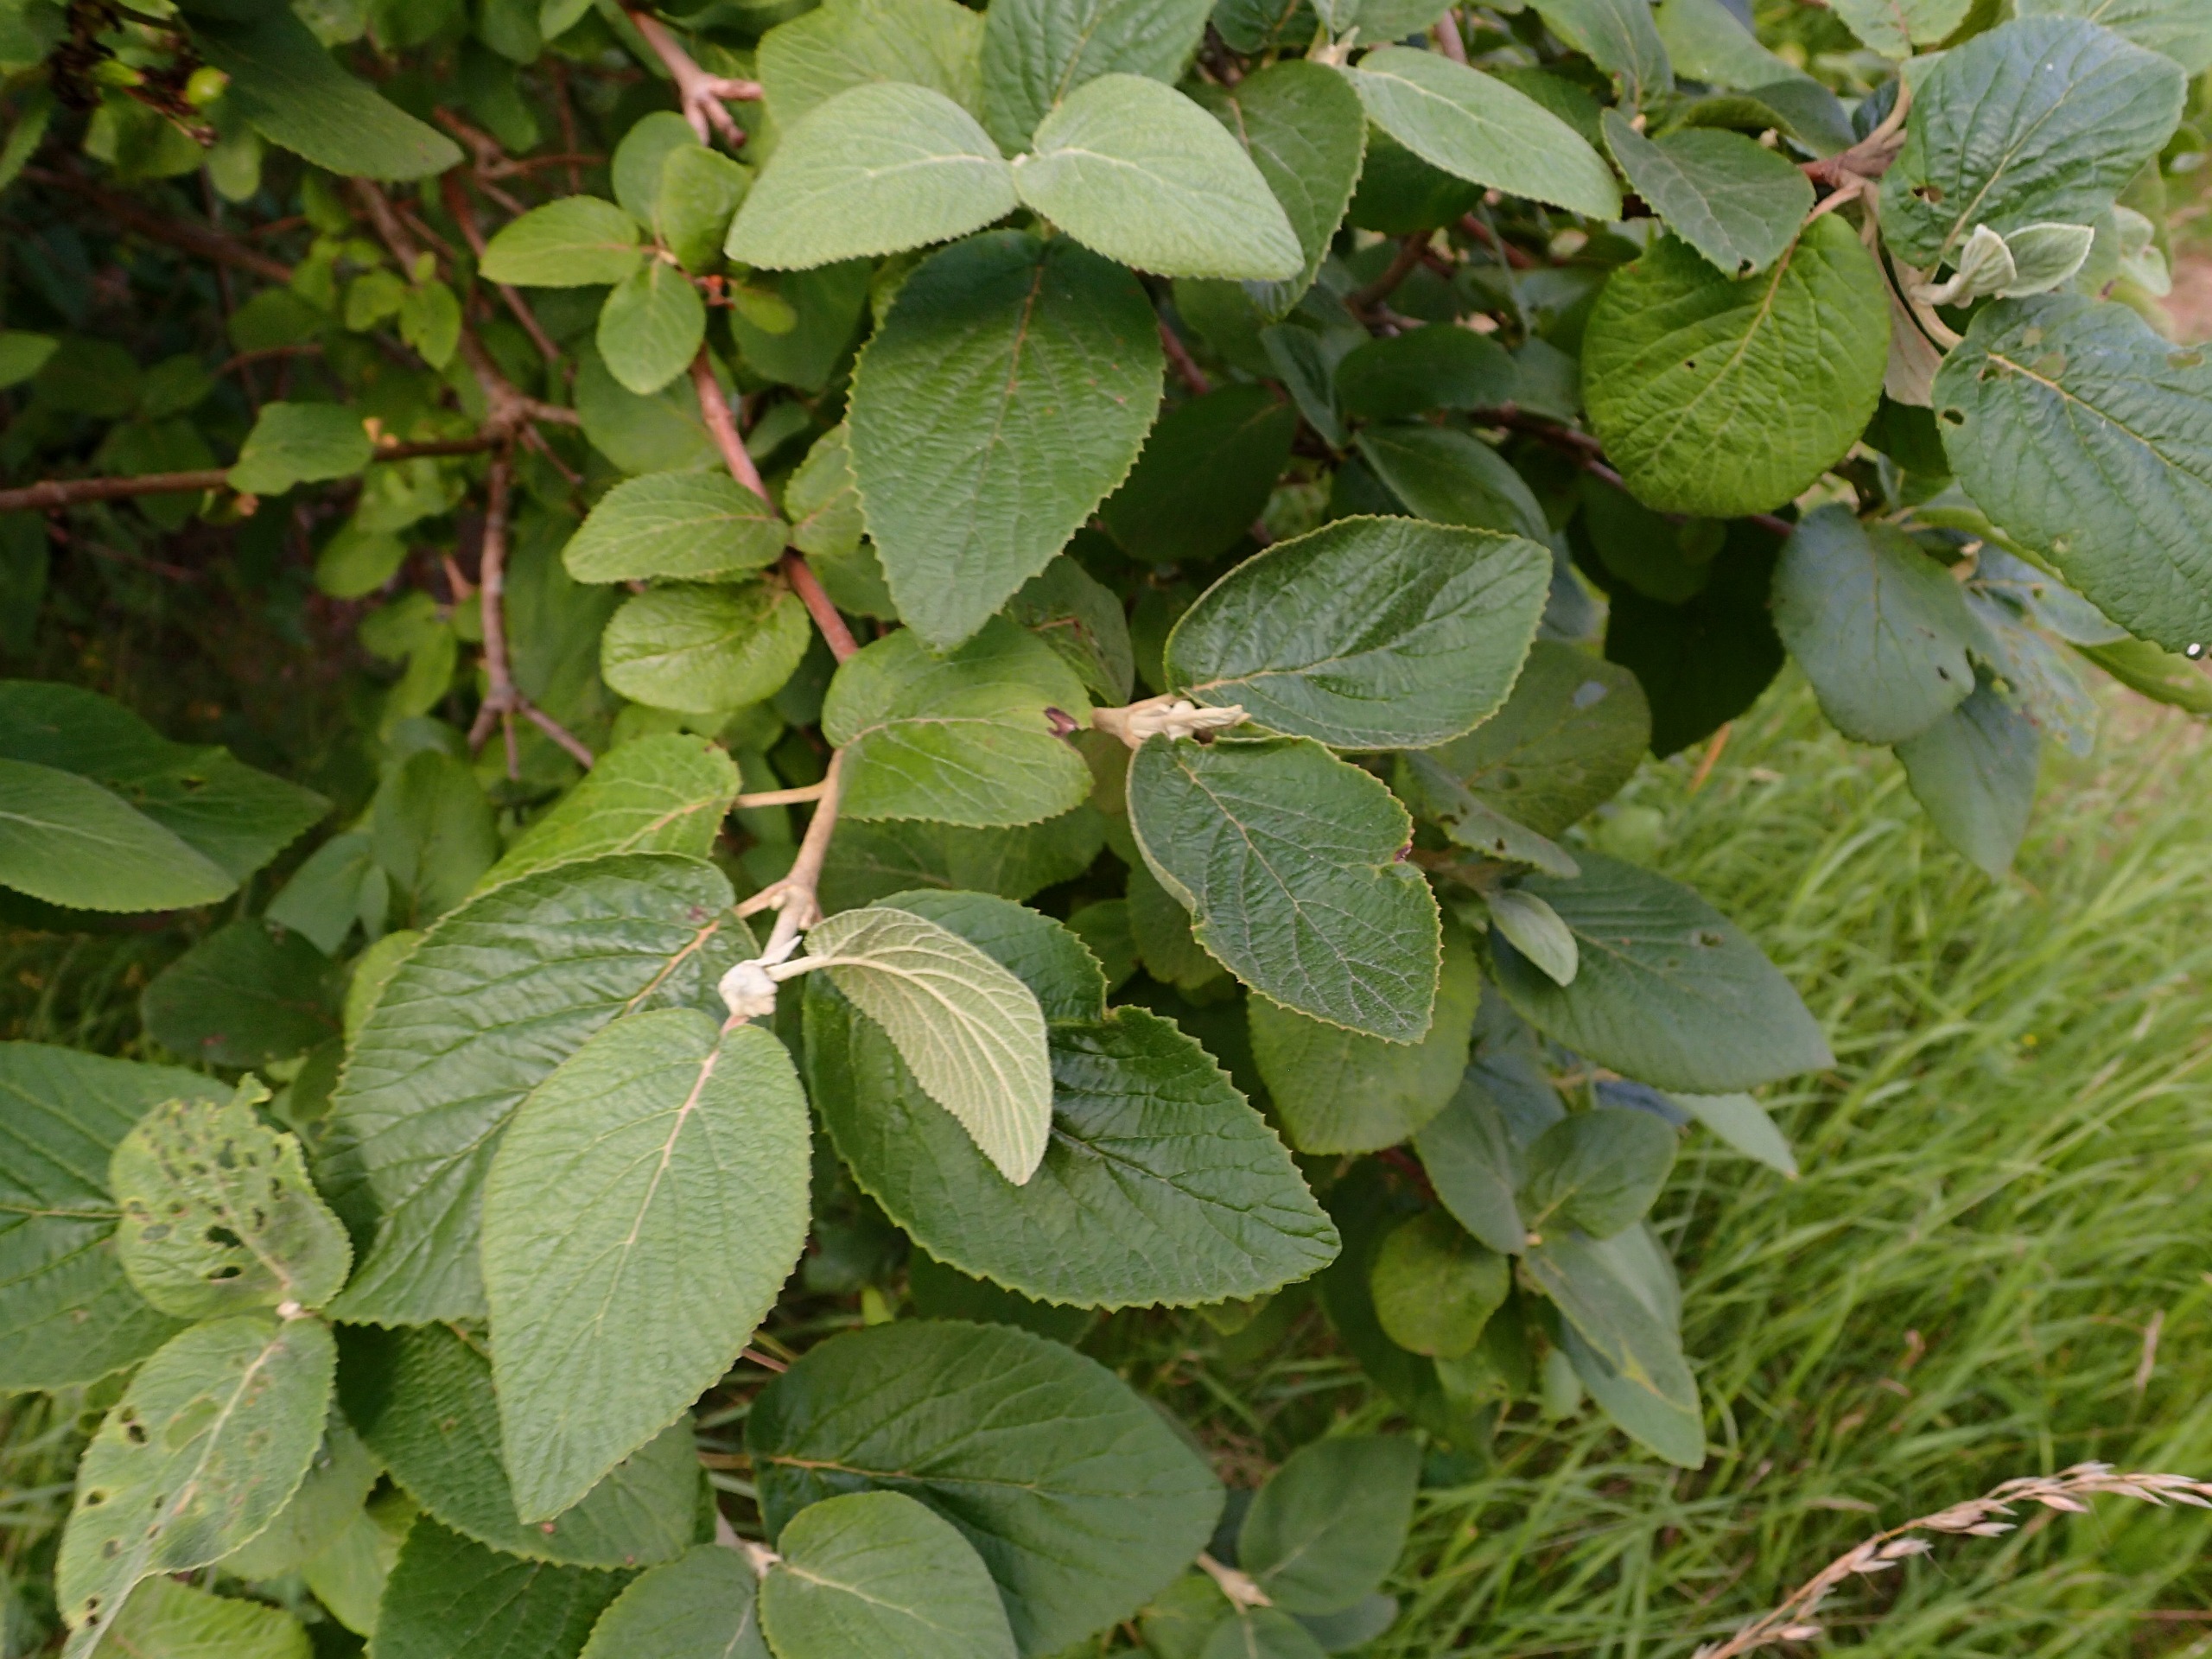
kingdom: Plantae
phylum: Tracheophyta
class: Magnoliopsida
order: Dipsacales
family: Viburnaceae
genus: Viburnum
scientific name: Viburnum lantana
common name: Pibe-kvalkved
